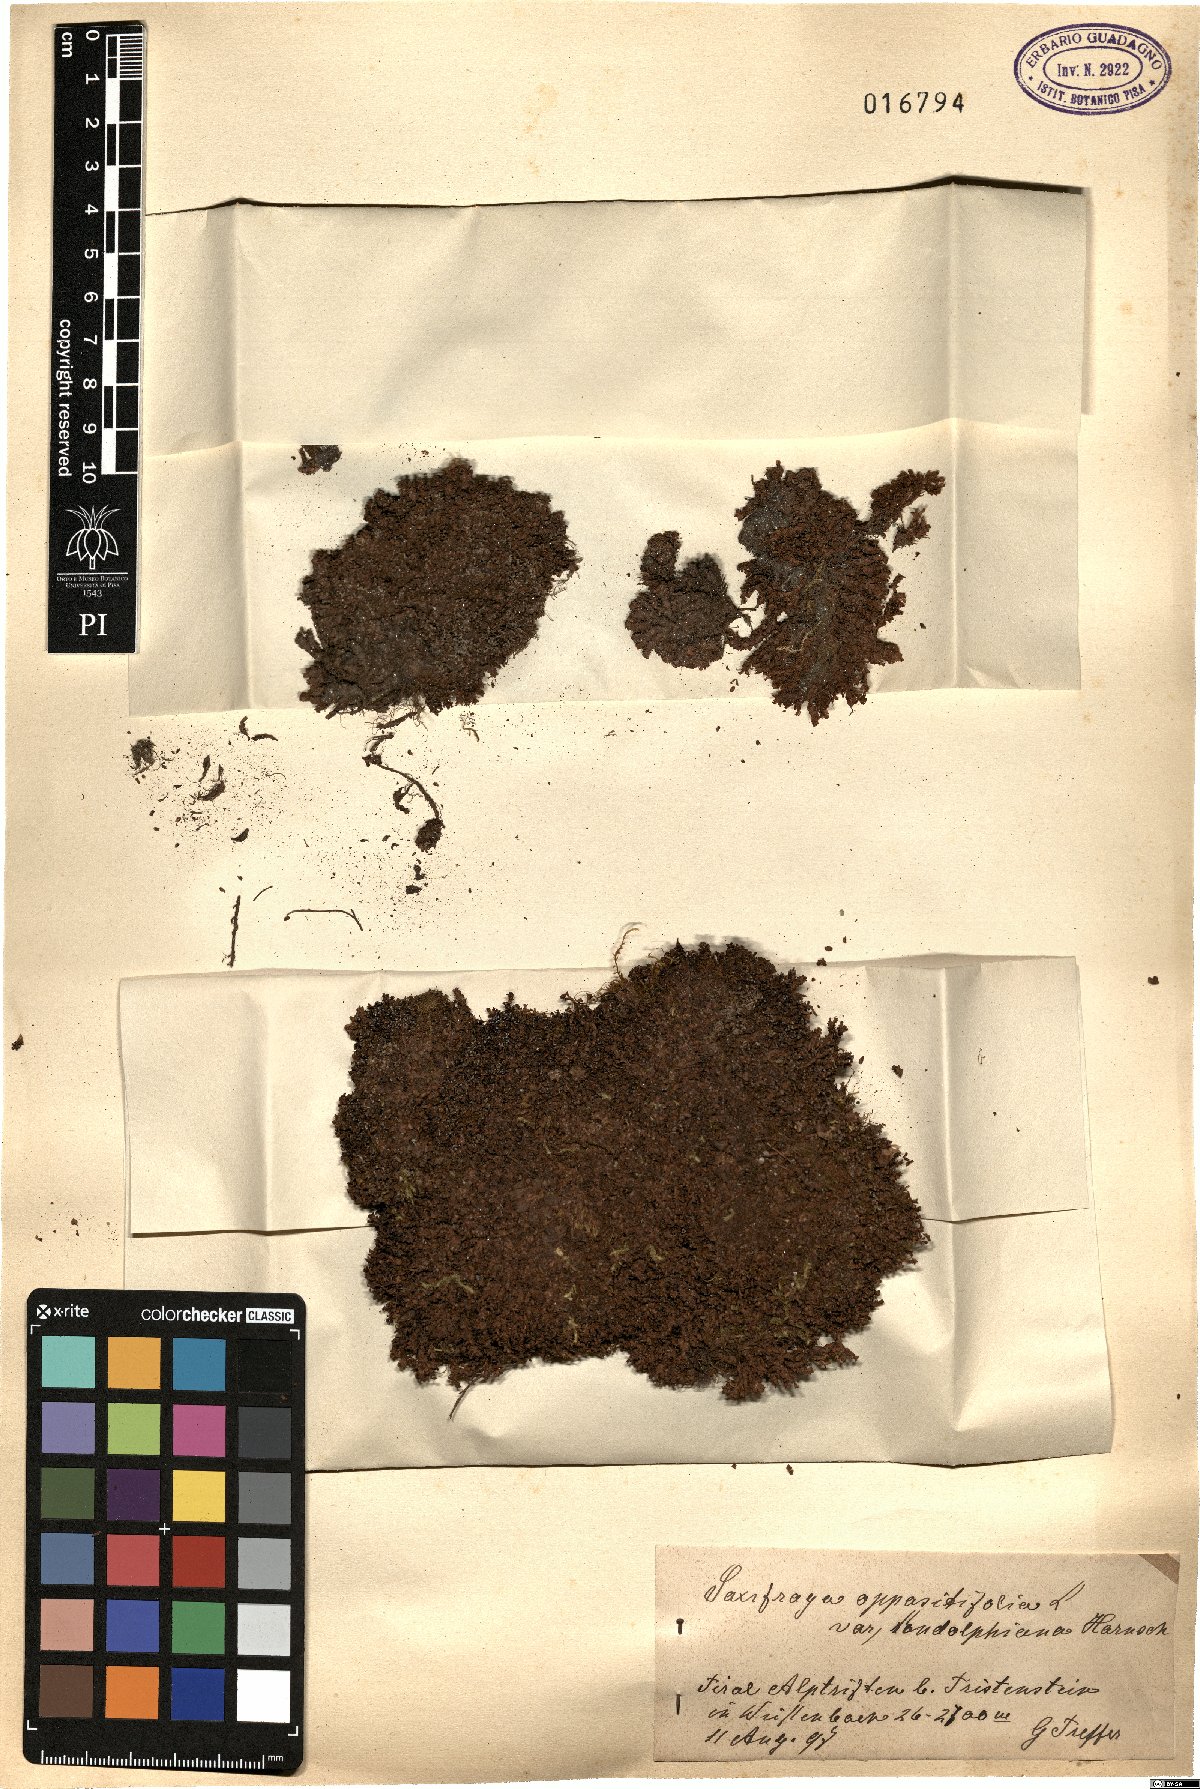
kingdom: Plantae
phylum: Tracheophyta
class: Magnoliopsida
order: Saxifragales
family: Saxifragaceae
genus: Saxifraga
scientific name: Saxifraga oppositifolia
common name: Purple saxifrage
